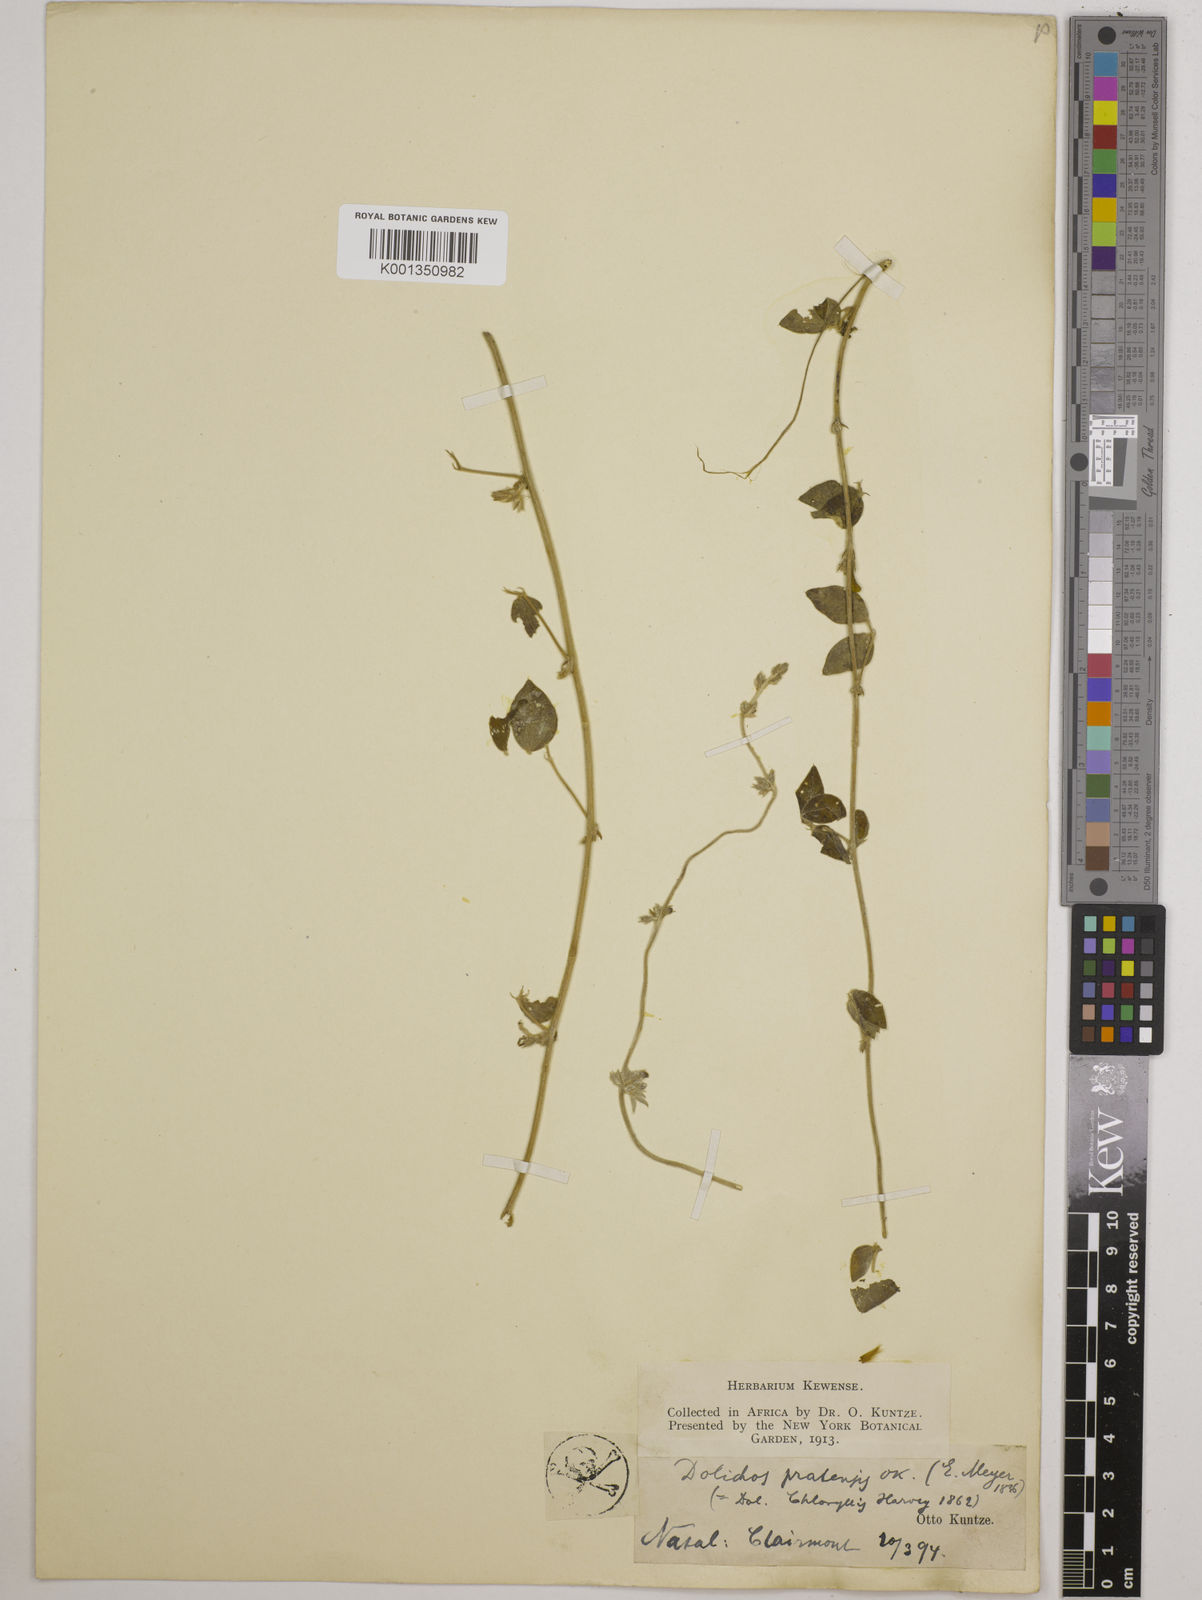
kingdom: Plantae
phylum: Tracheophyta
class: Magnoliopsida
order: Fabales
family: Fabaceae
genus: Dolichos
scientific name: Dolichos
